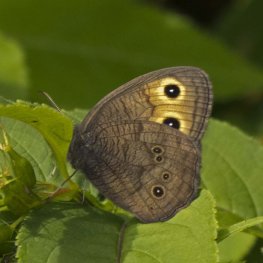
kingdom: Animalia
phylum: Arthropoda
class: Insecta
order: Lepidoptera
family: Nymphalidae
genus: Cercyonis
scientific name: Cercyonis pegala
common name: Common Wood-Nymph
